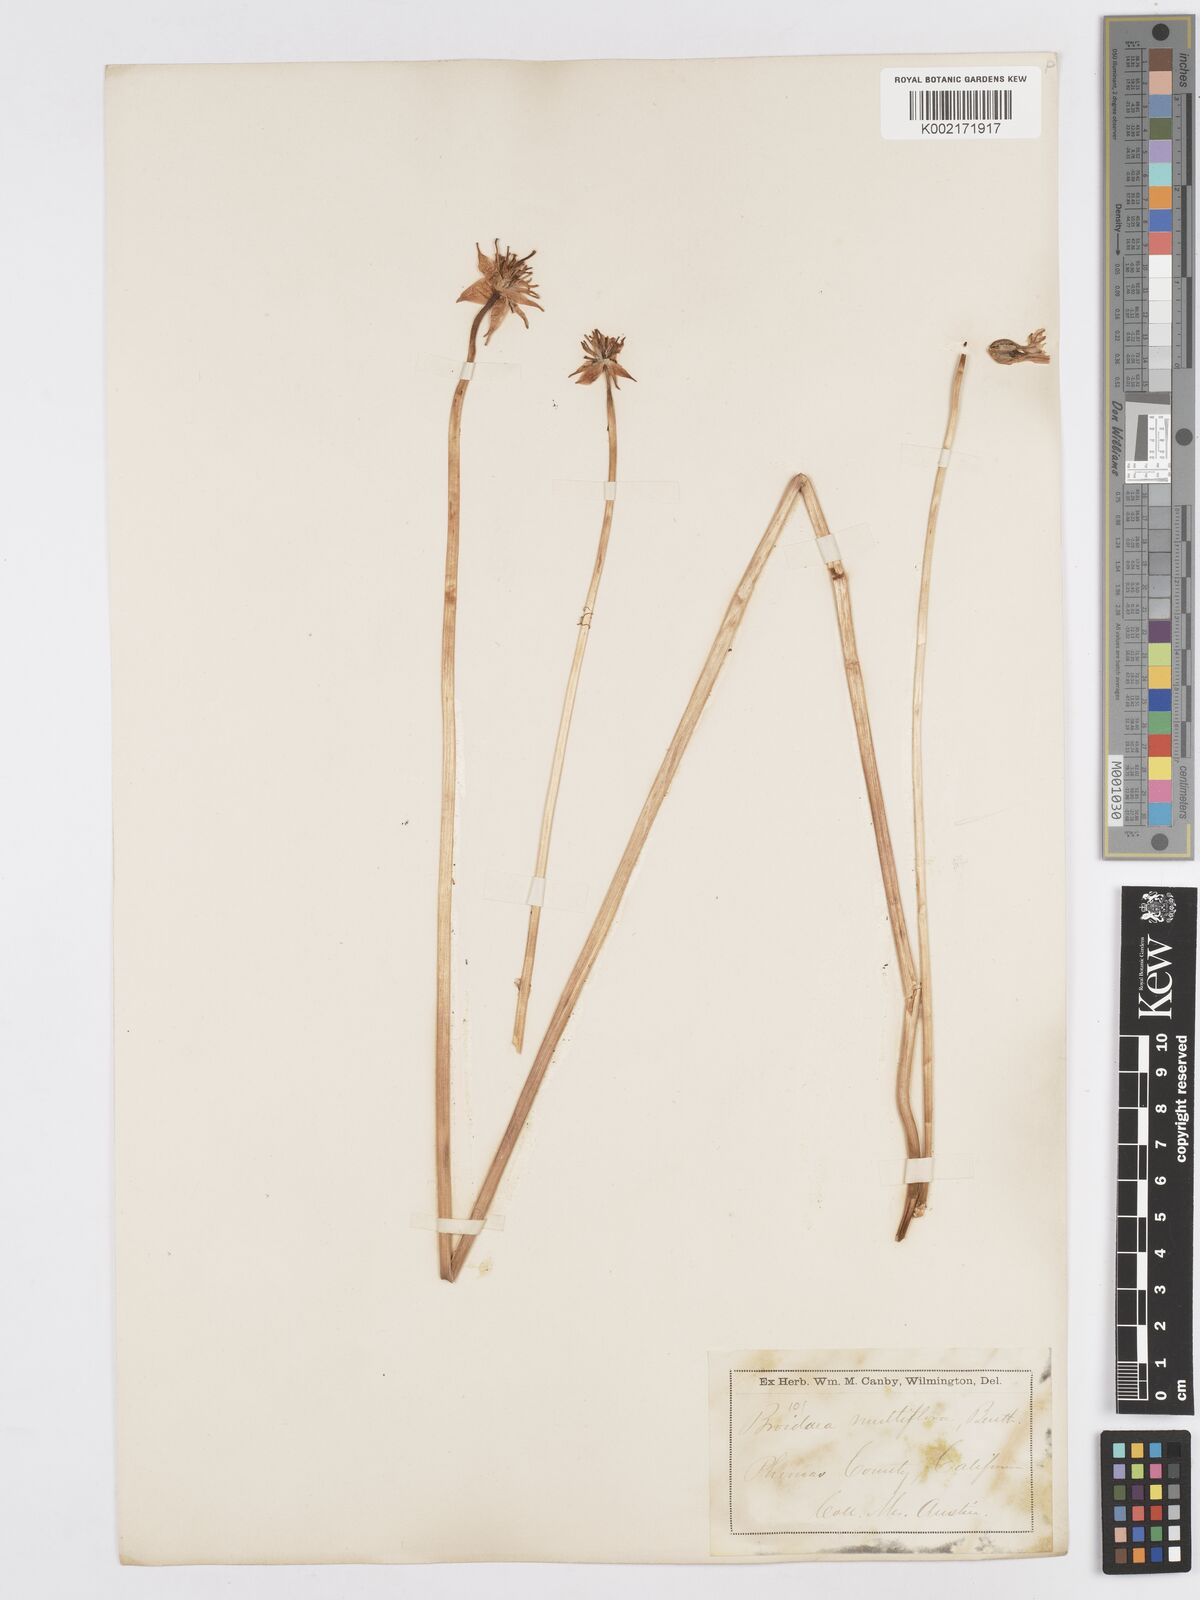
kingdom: Plantae
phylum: Tracheophyta
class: Liliopsida
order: Asparagales
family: Asparagaceae
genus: Dichelostemma
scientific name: Dichelostemma multiflorum
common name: Round-tooth ookow
